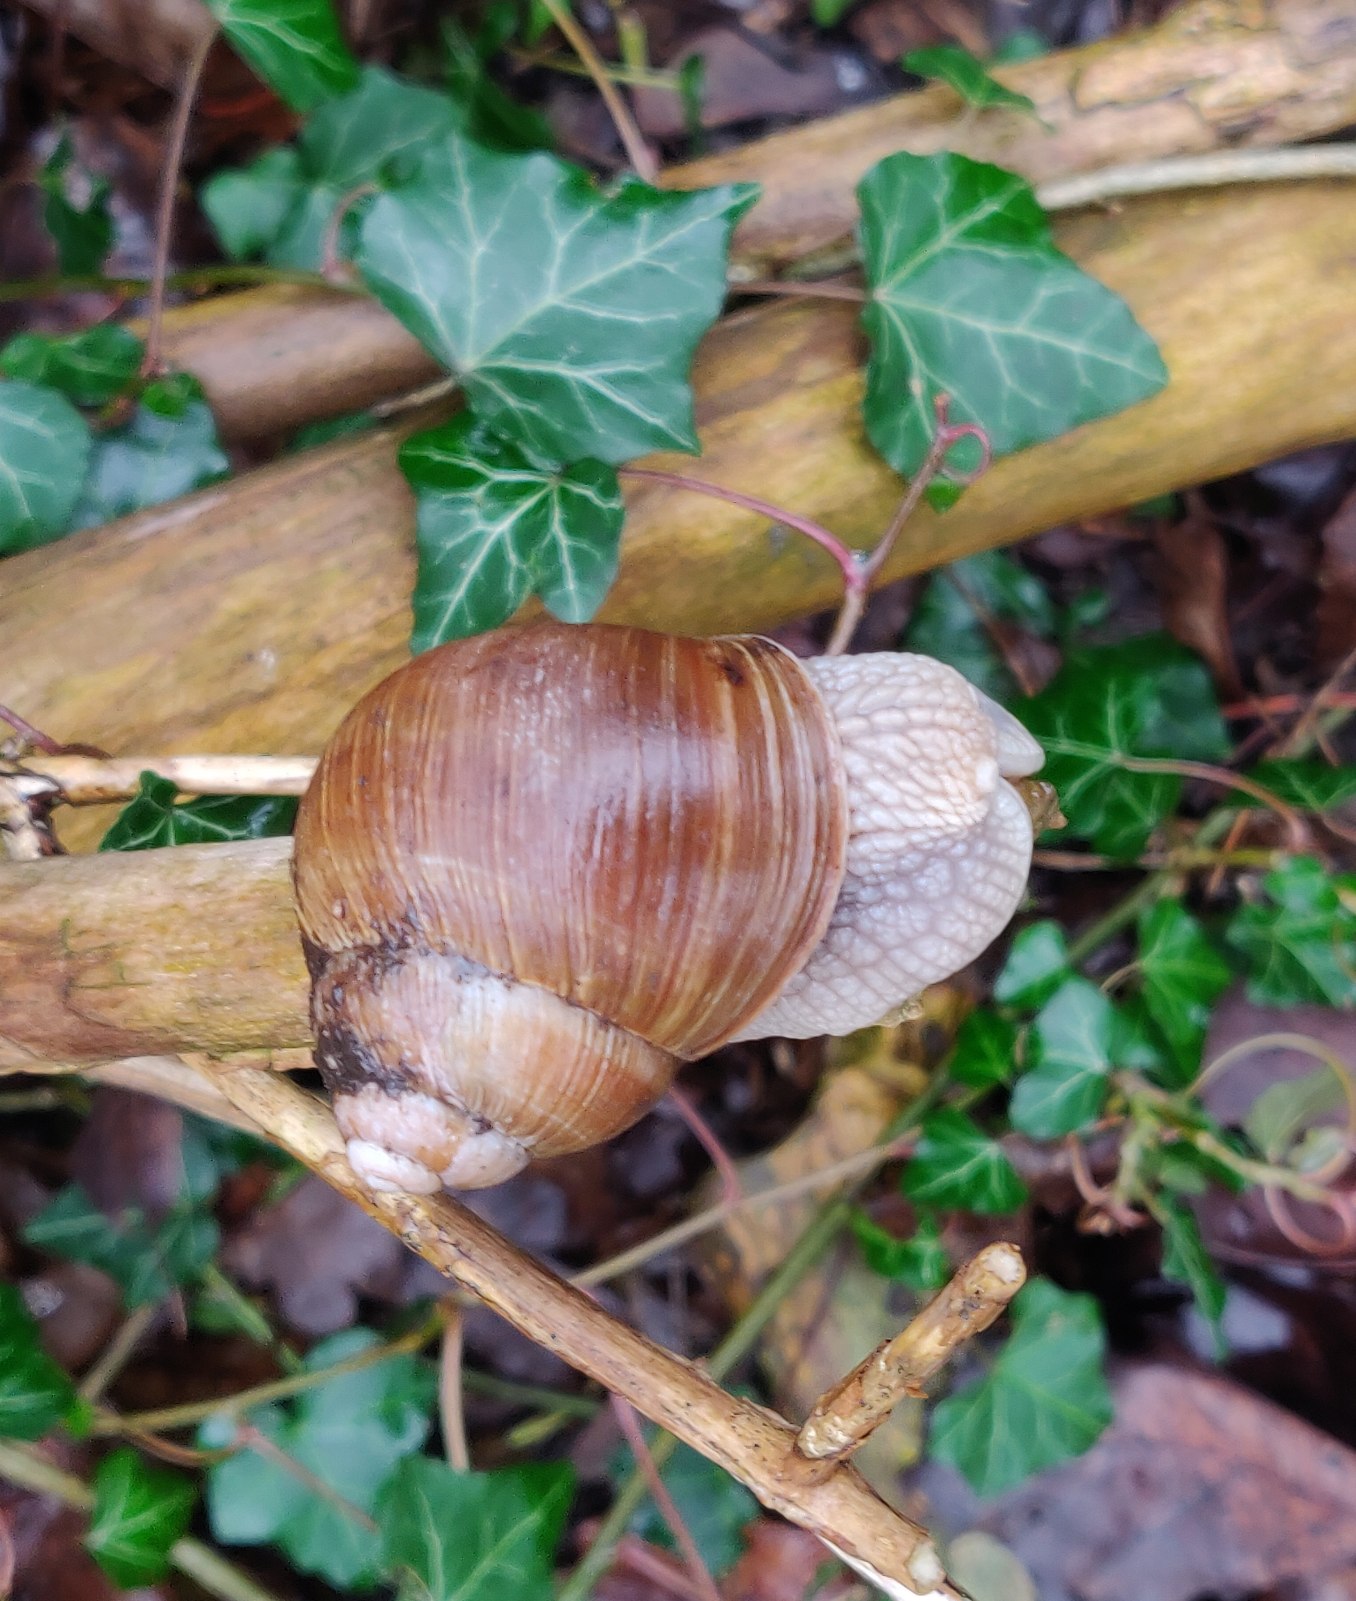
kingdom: Animalia
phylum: Mollusca
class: Gastropoda
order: Stylommatophora
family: Helicidae
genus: Helix
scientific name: Helix pomatia
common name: Vinbjergsnegl
